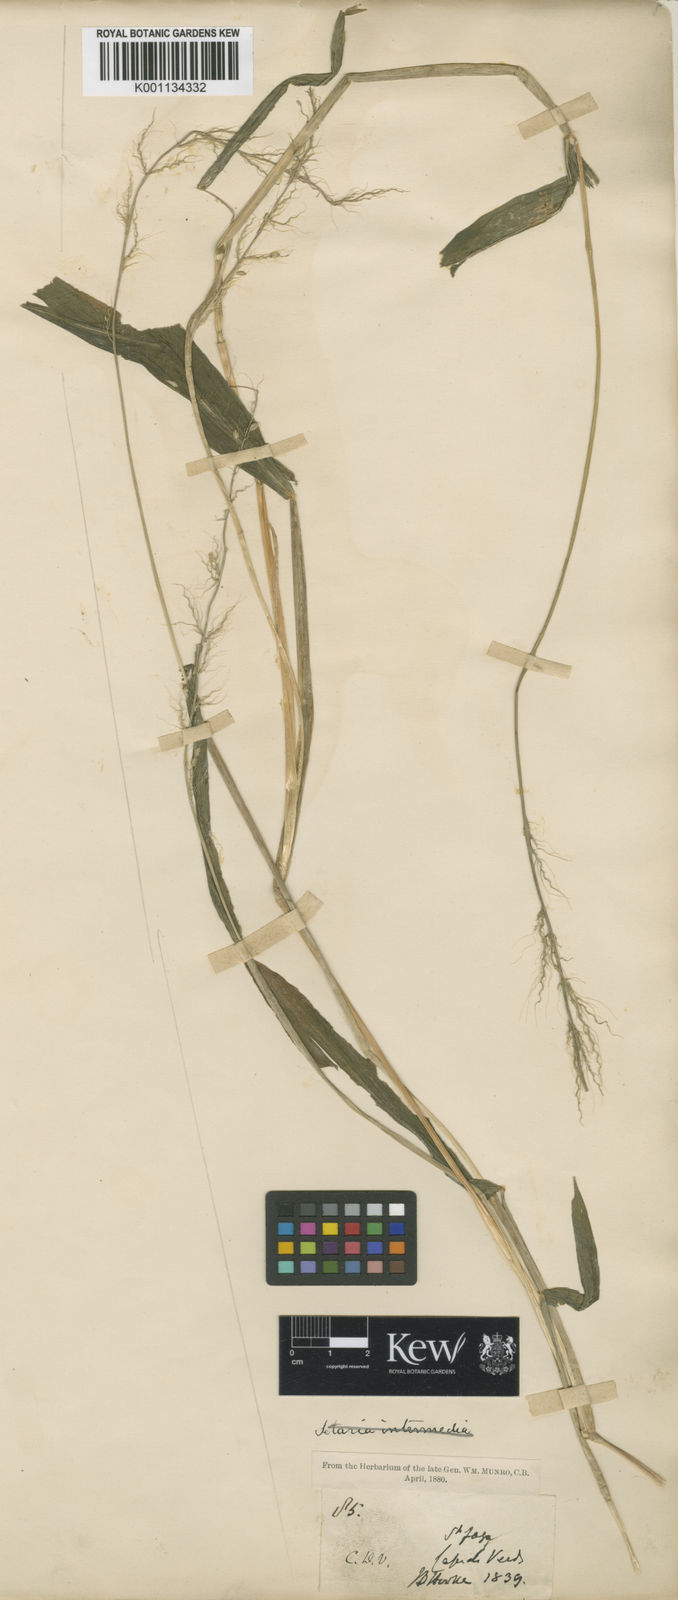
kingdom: Plantae
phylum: Tracheophyta
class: Liliopsida
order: Poales
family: Poaceae
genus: Setaria
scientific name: Setaria barbata
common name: East indian bristlegrass
